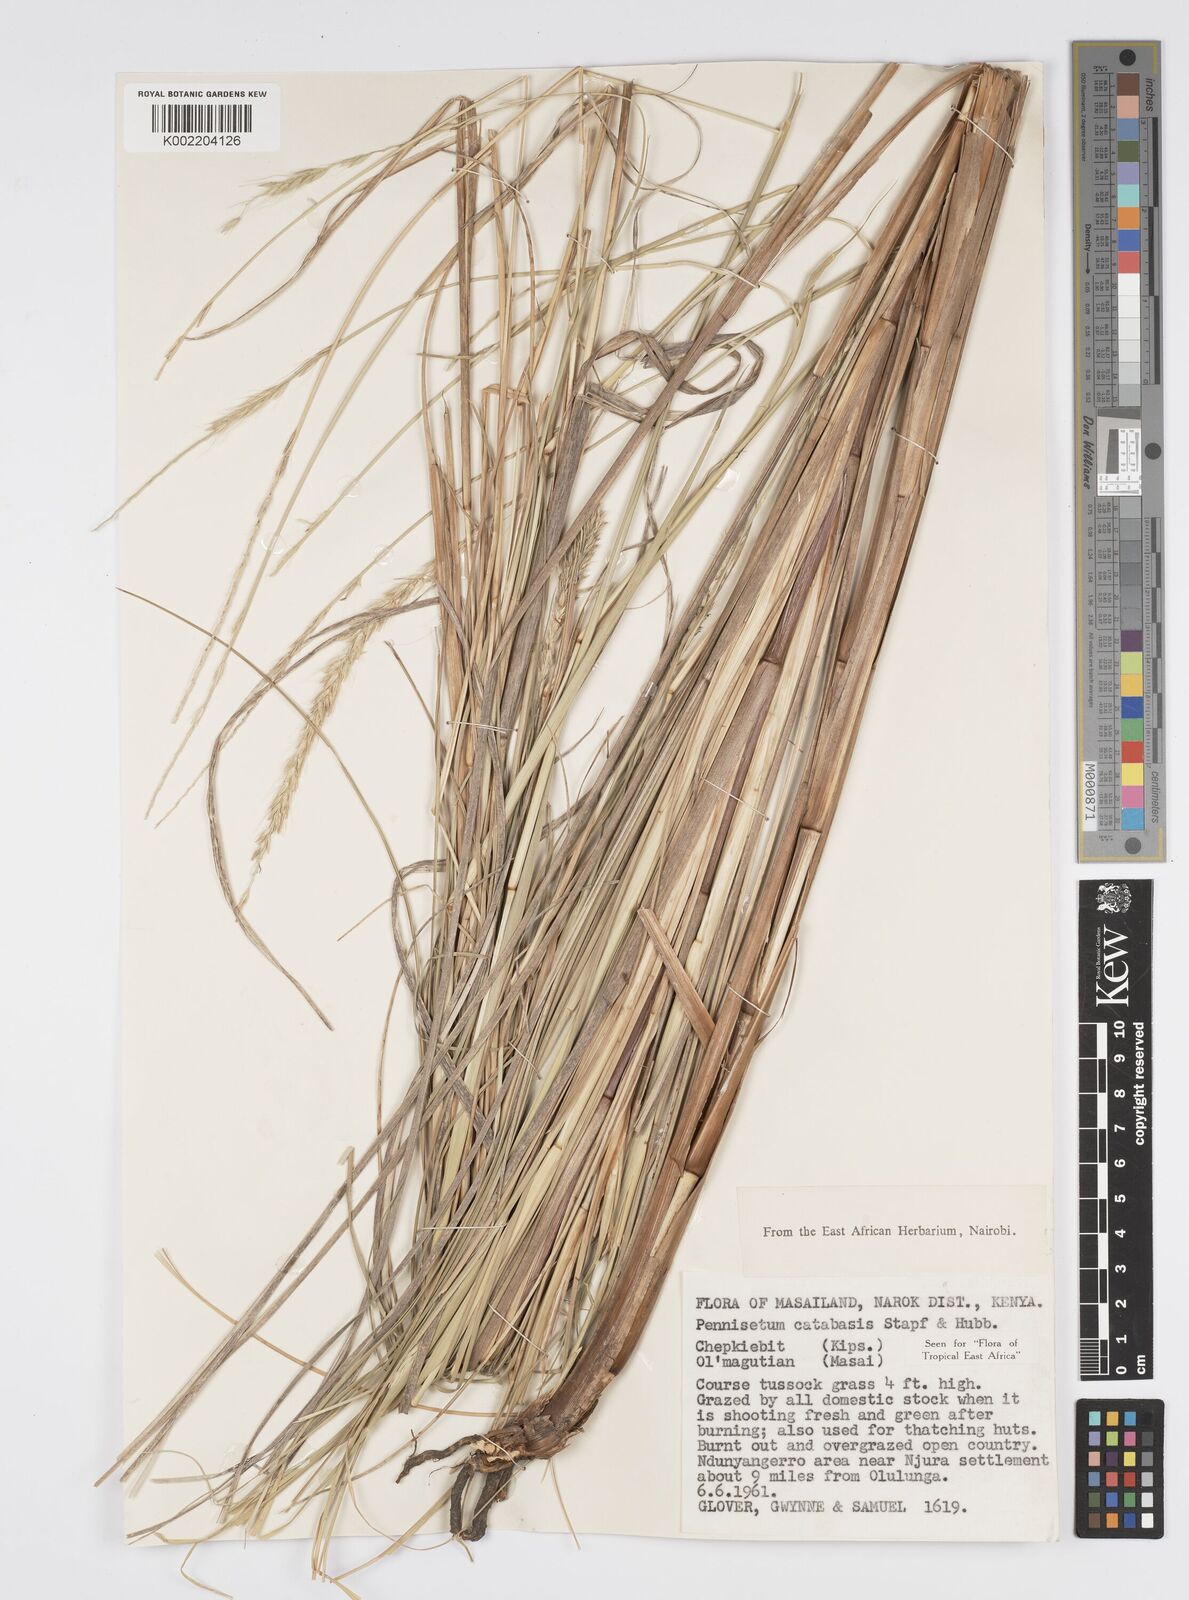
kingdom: Plantae
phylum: Tracheophyta
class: Liliopsida
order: Poales
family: Poaceae
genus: Cenchrus
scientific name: Cenchrus hohenackeri
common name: Moya grass
